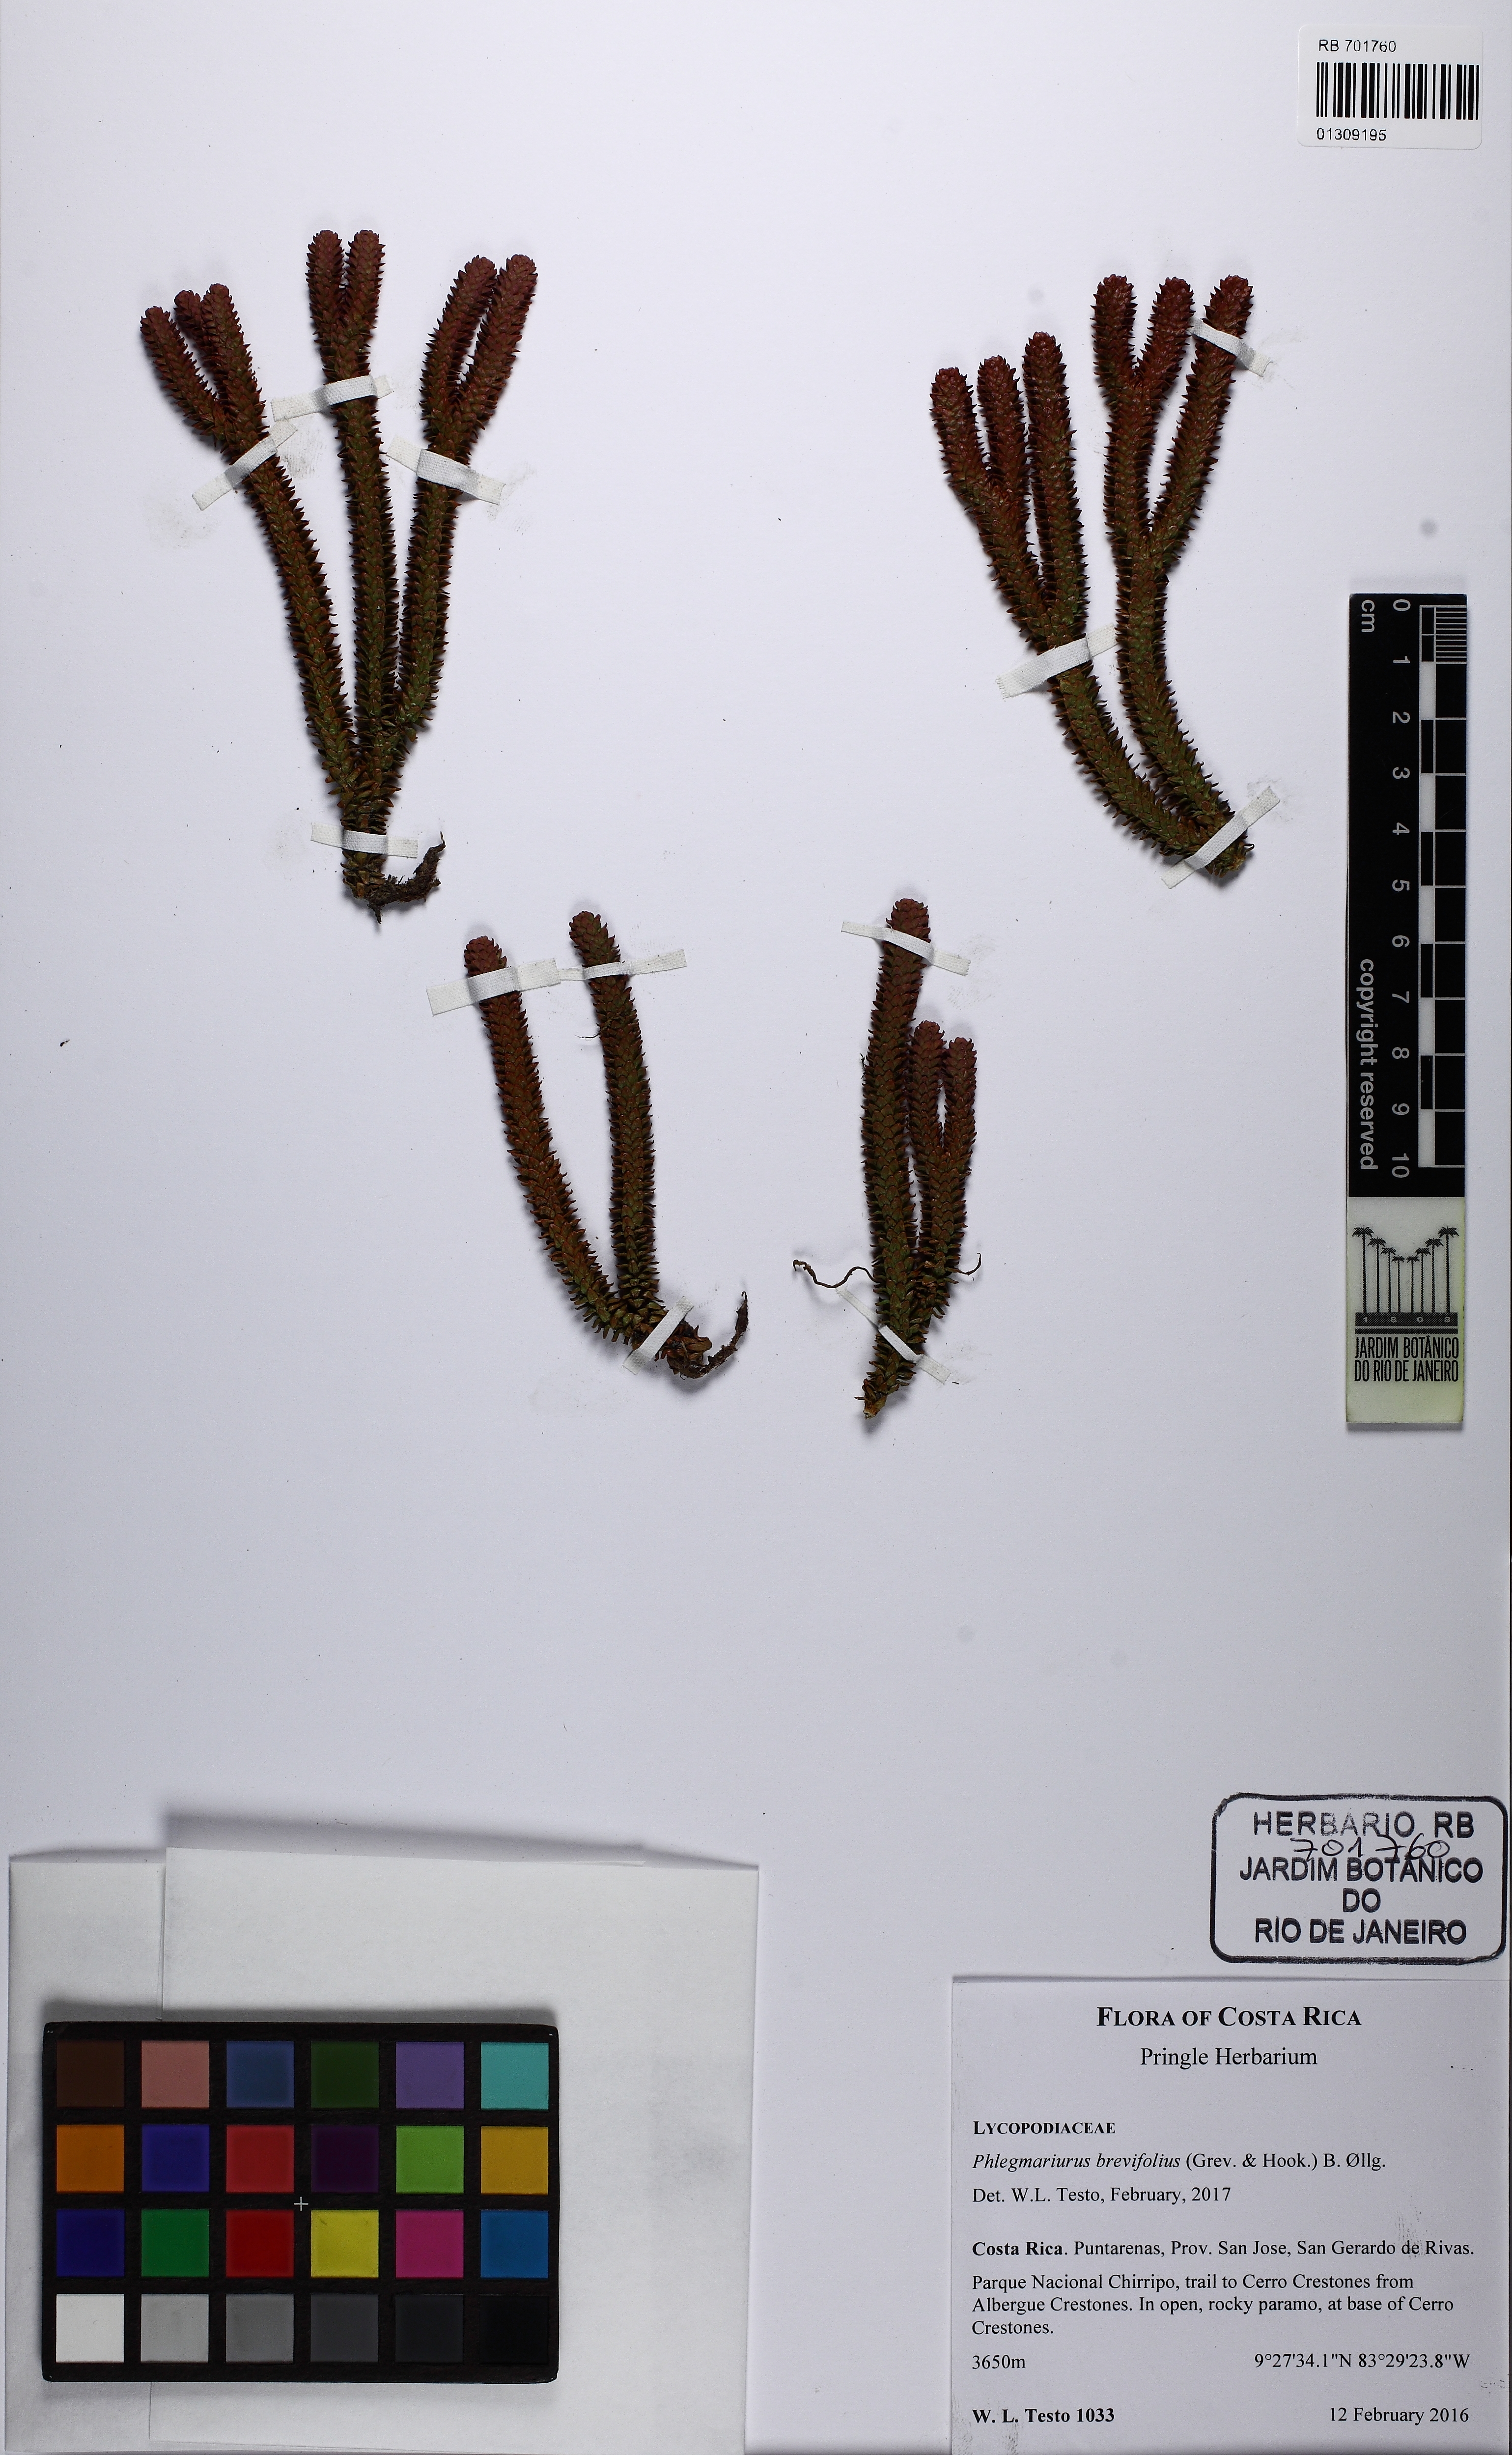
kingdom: Plantae
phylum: Tracheophyta
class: Lycopodiopsida
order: Lycopodiales
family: Lycopodiaceae
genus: Phlegmariurus
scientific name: Phlegmariurus brevifolius
